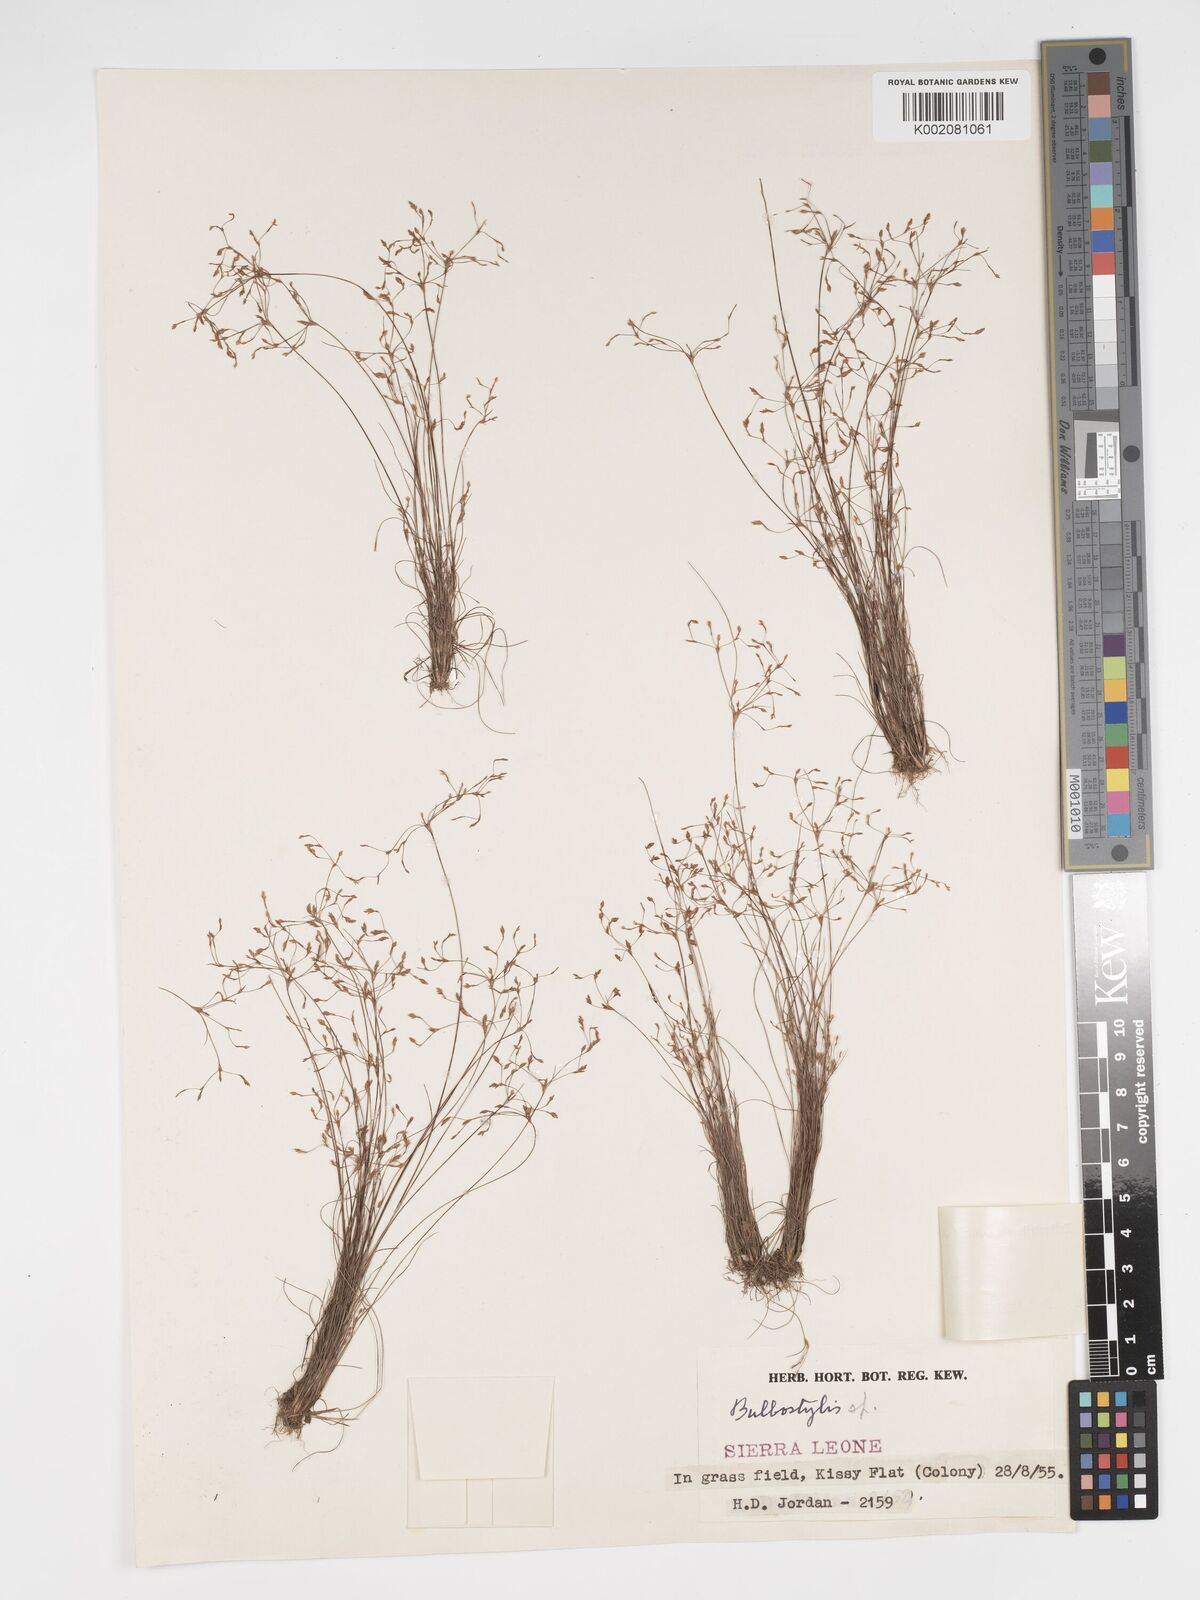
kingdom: Plantae
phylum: Tracheophyta
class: Liliopsida
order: Poales
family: Cyperaceae
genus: Bulbostylis
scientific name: Bulbostylis densa
